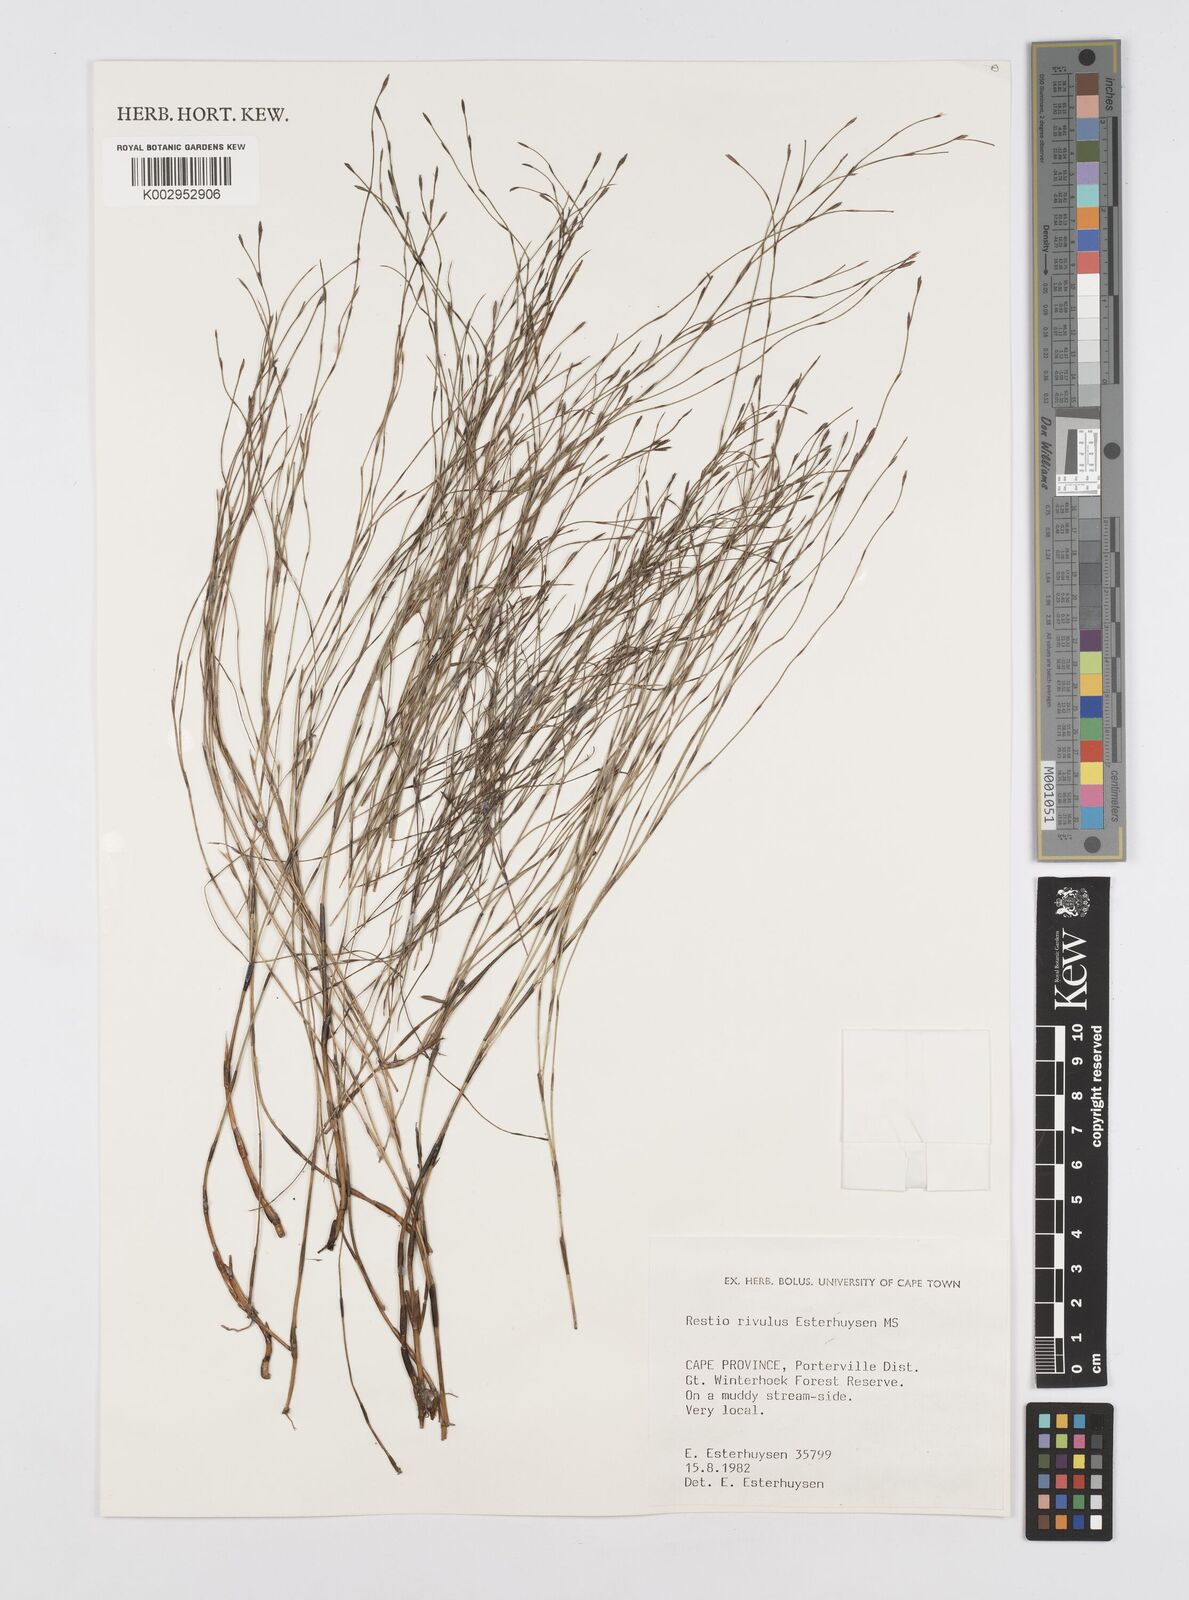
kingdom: Plantae
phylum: Tracheophyta
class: Liliopsida
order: Poales
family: Restionaceae
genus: Restio
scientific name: Restio rivulus
